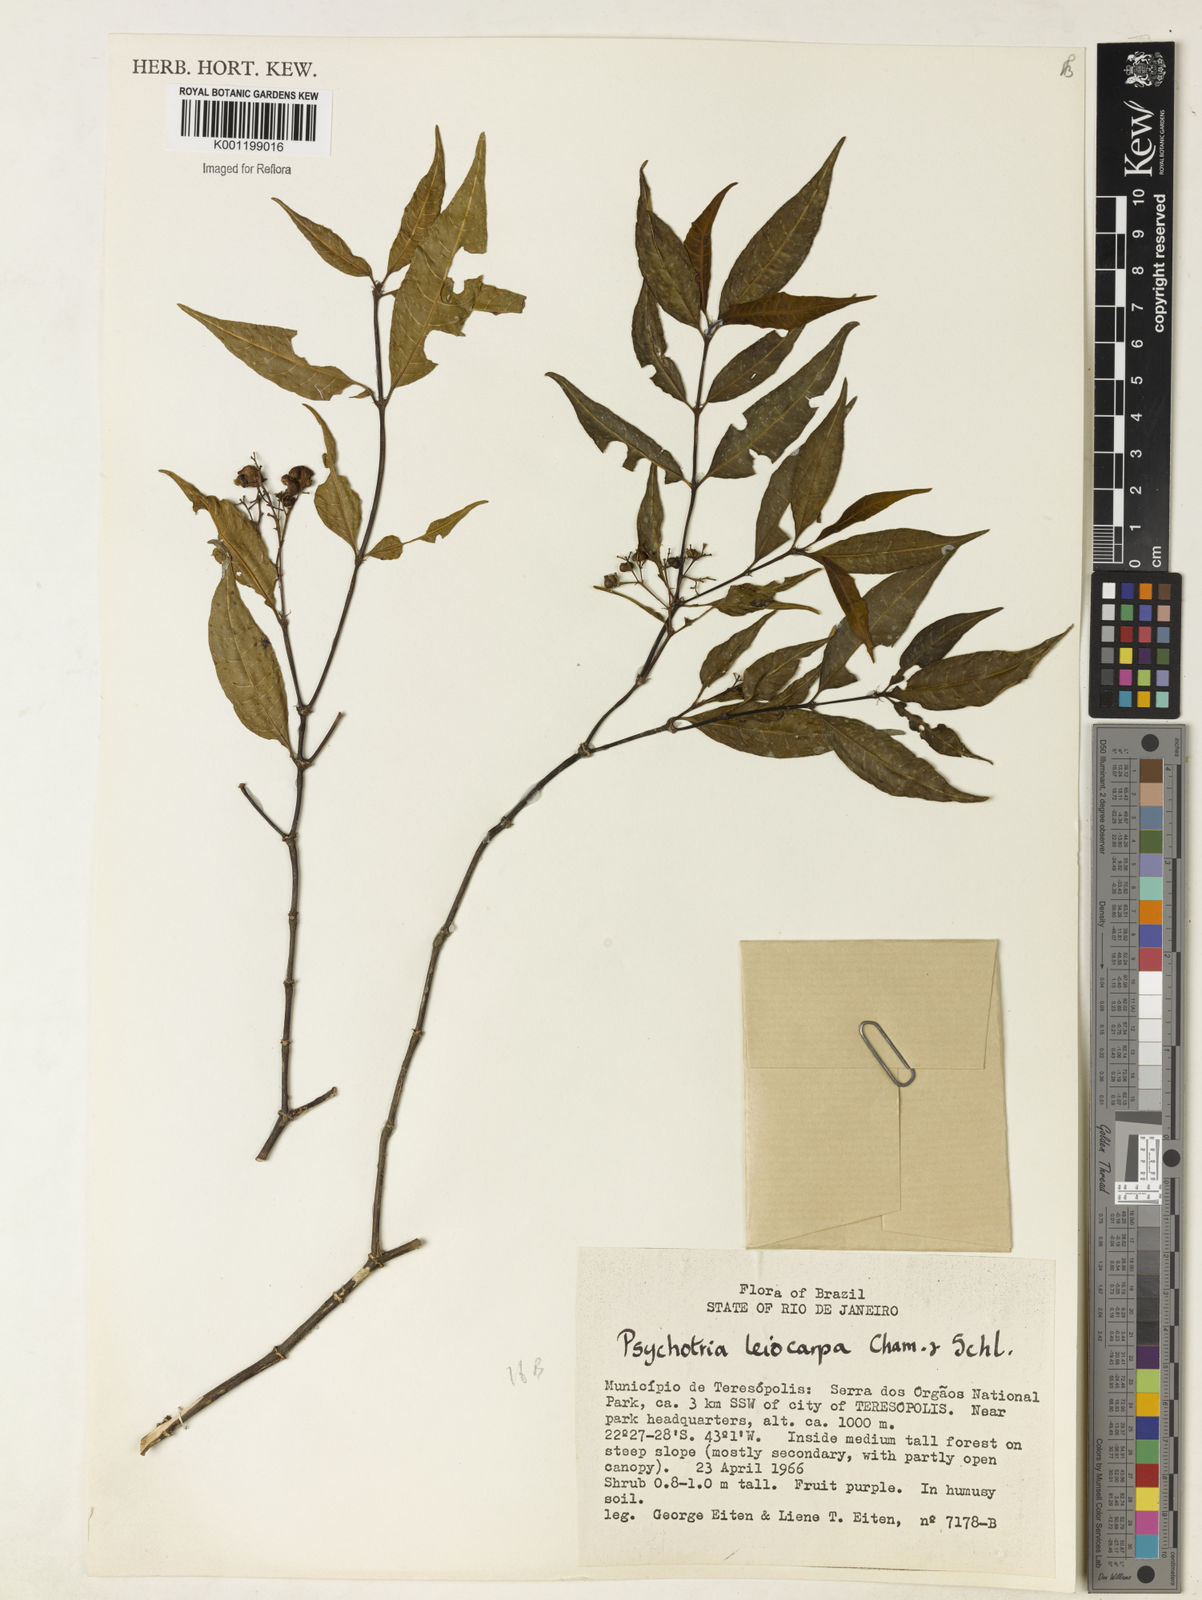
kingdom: Plantae
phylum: Tracheophyta
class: Magnoliopsida
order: Gentianales
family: Rubiaceae
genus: Psychotria
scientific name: Psychotria leiocarpa
